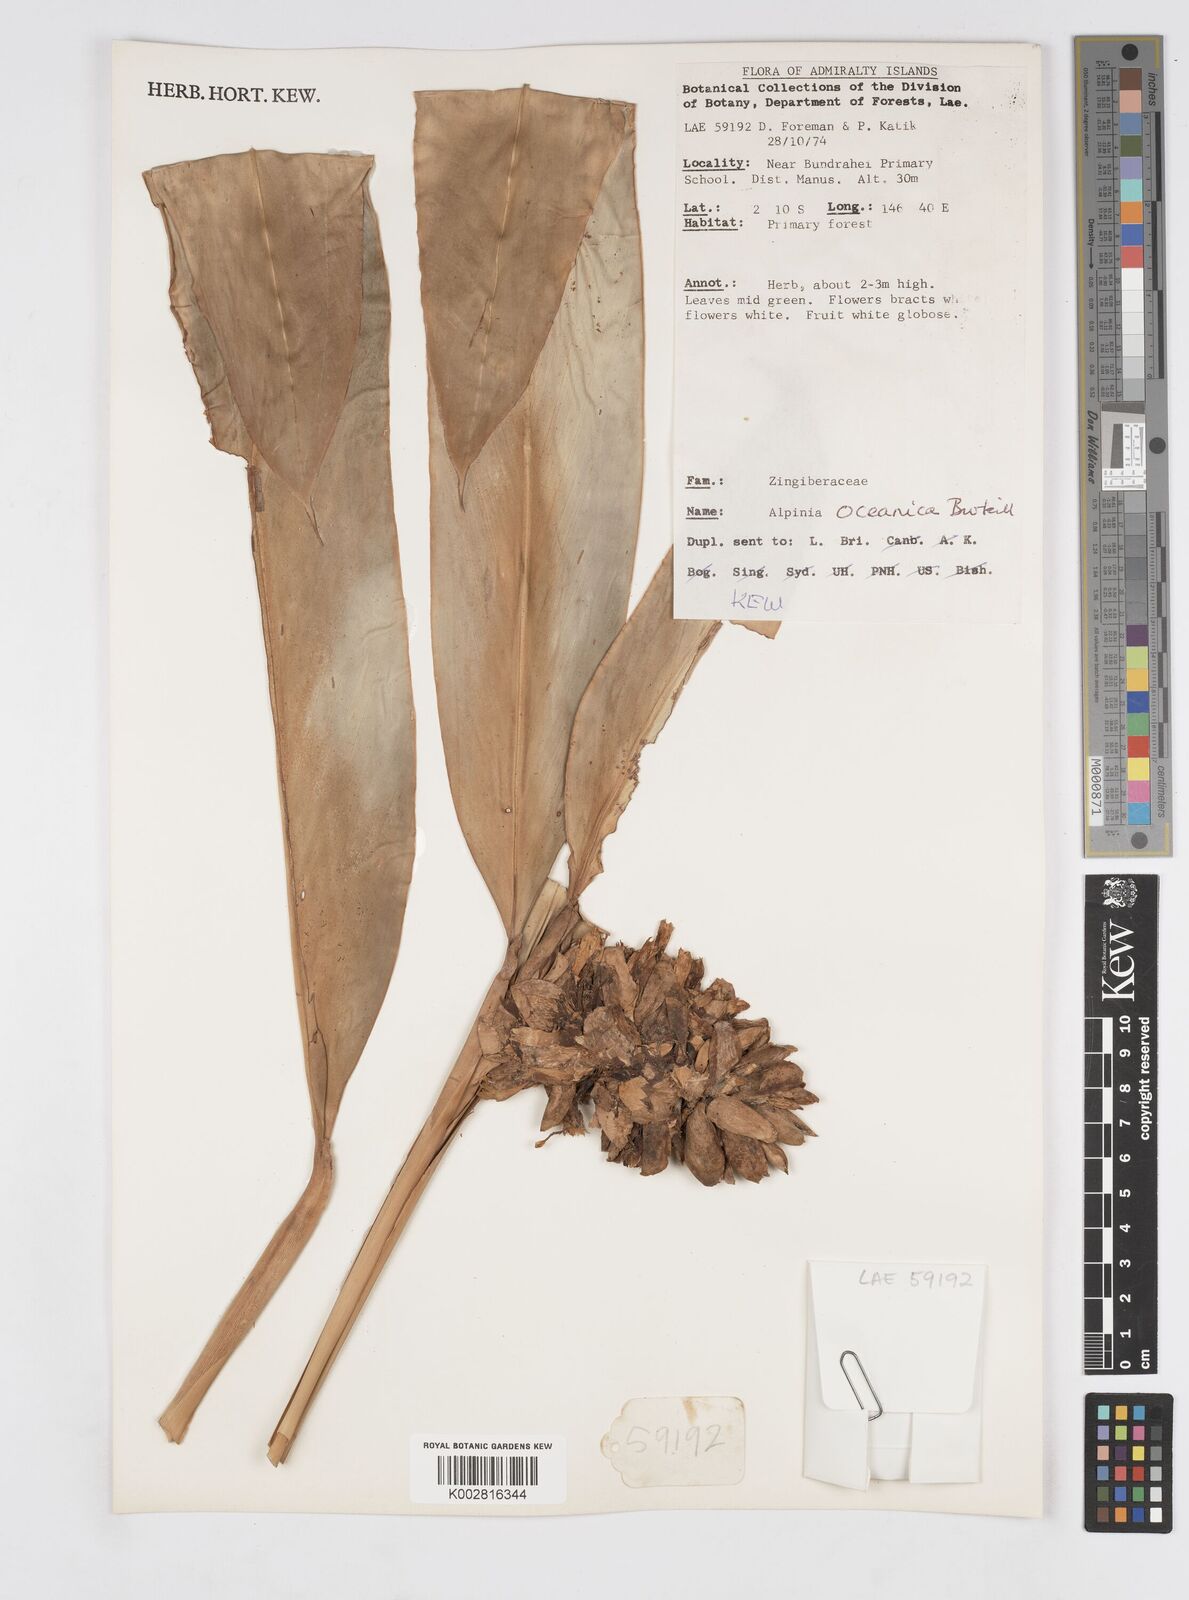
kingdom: Plantae
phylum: Tracheophyta
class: Liliopsida
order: Zingiberales
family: Zingiberaceae
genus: Alpinia
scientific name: Alpinia oceanica
